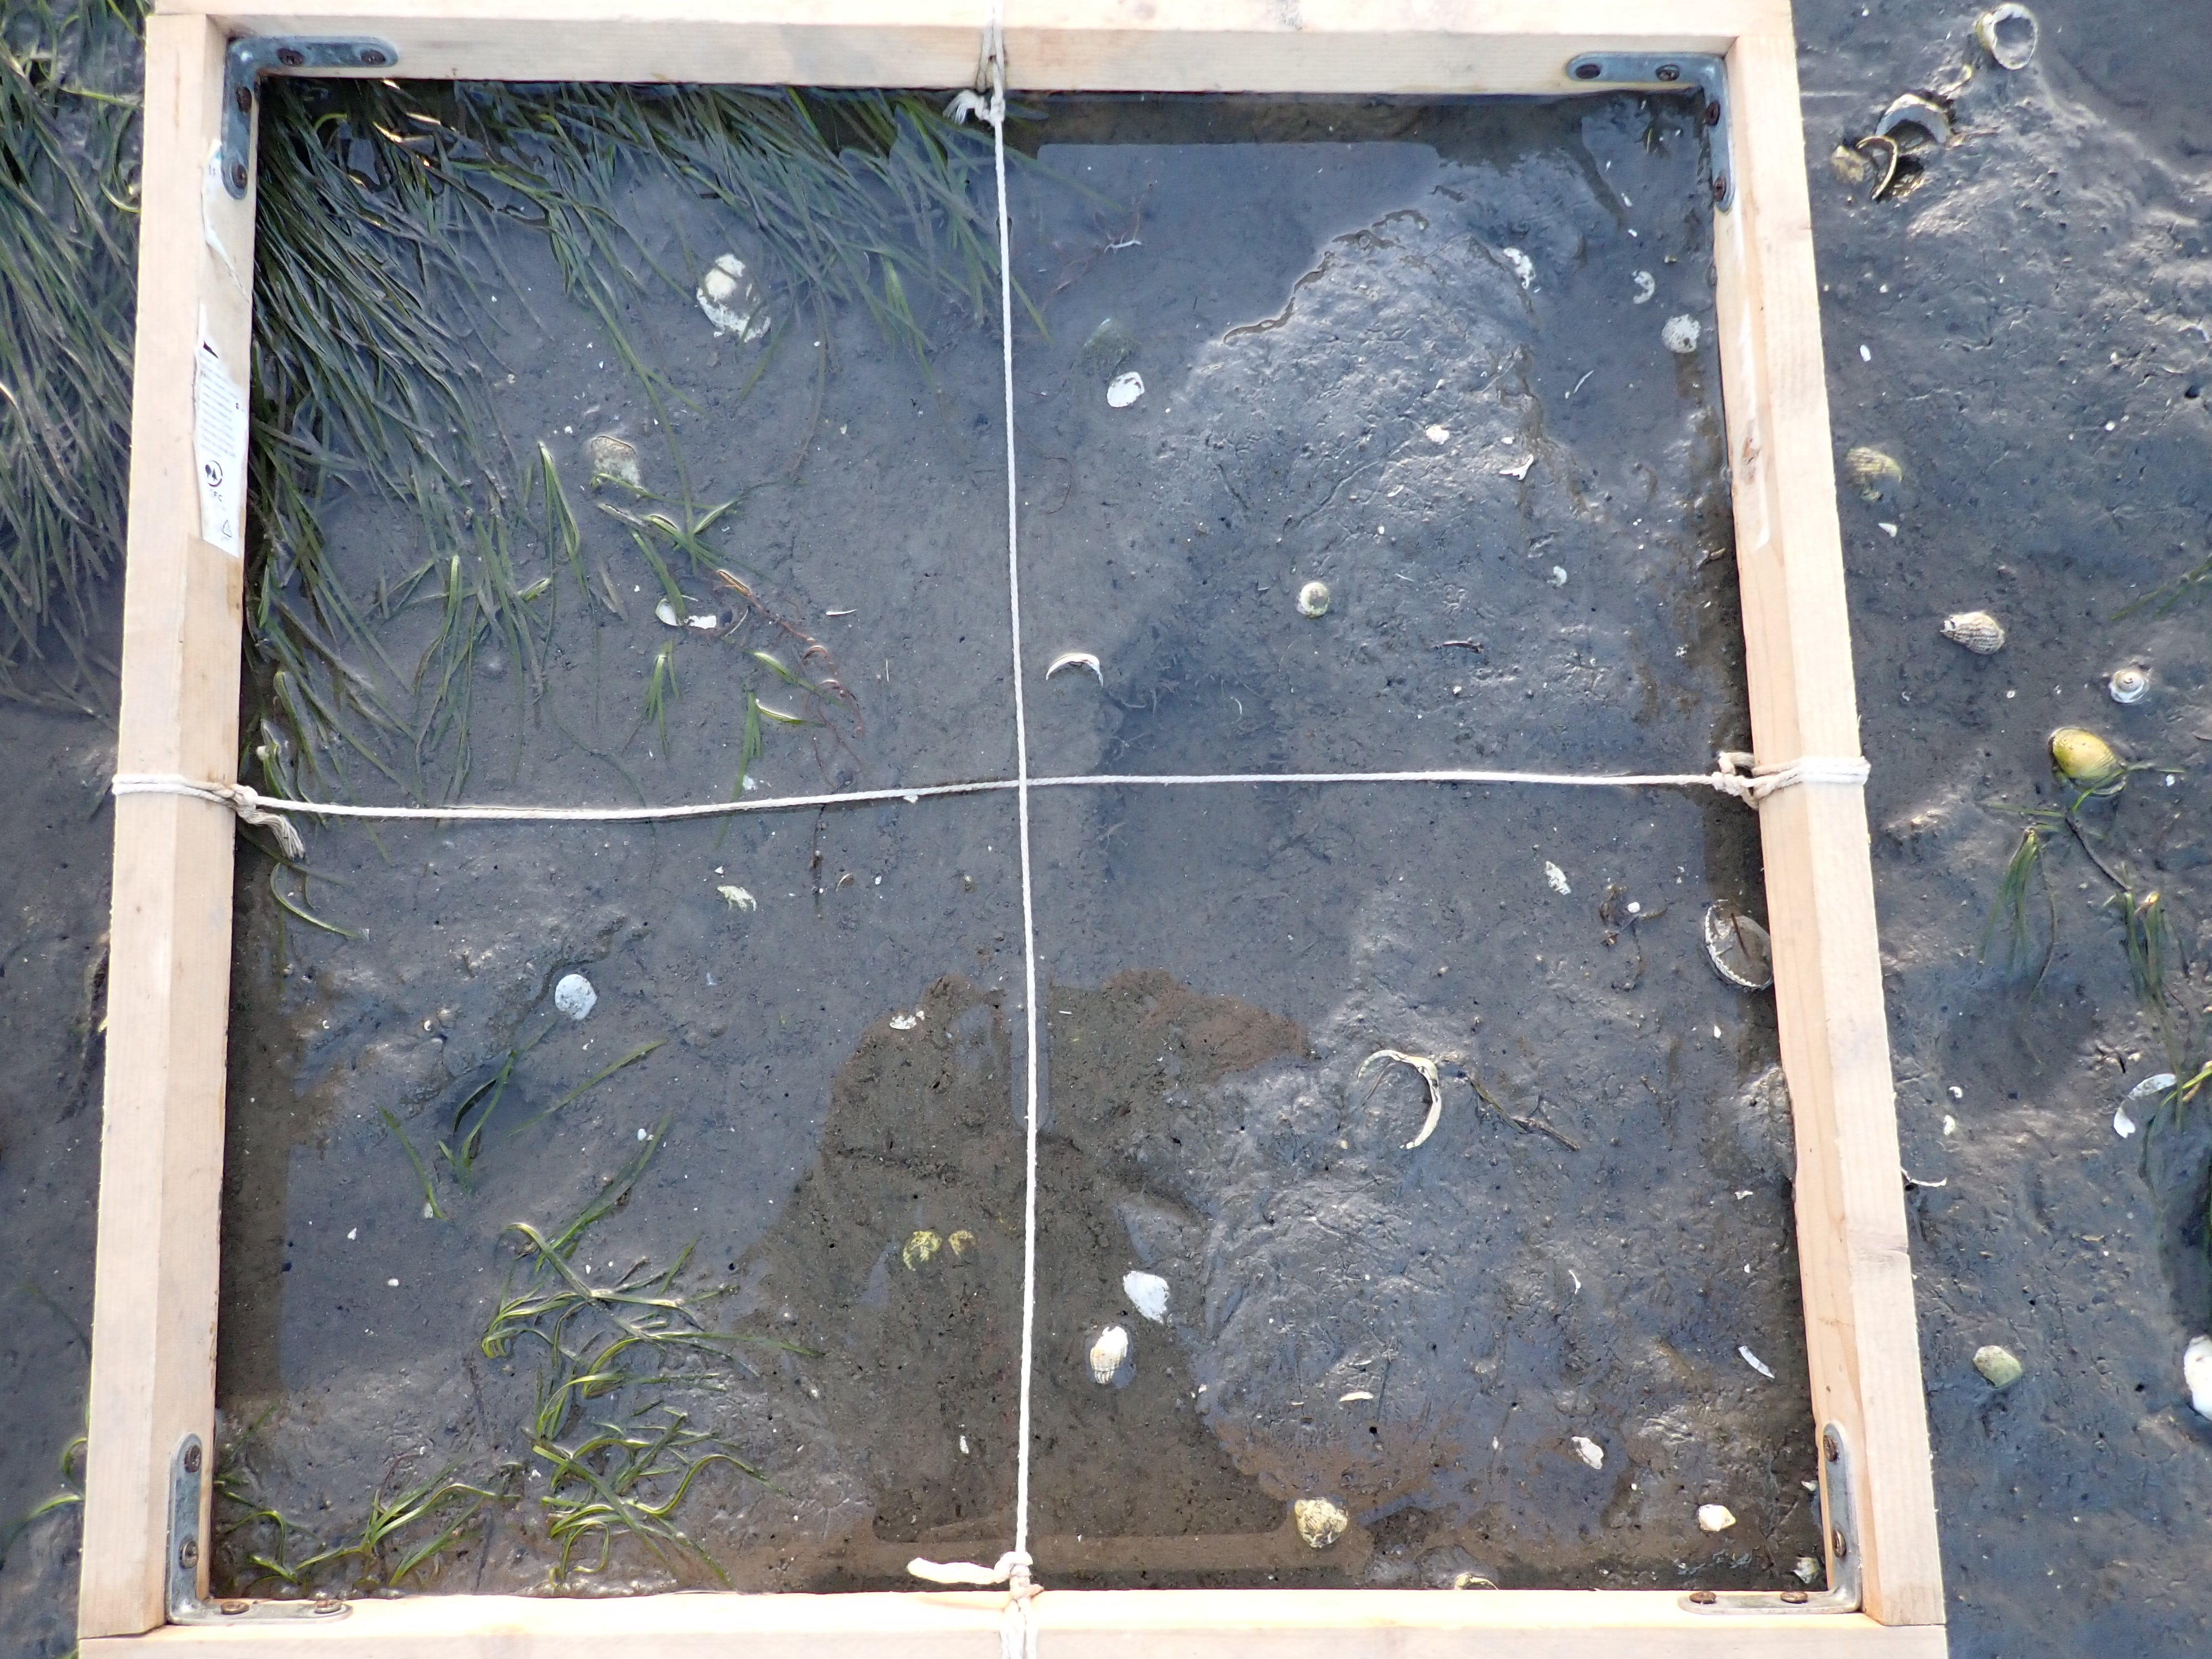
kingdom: Plantae
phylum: Tracheophyta
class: Liliopsida
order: Alismatales
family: Zosteraceae
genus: Zostera
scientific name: Zostera noltii
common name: Dwarf eelgrass
